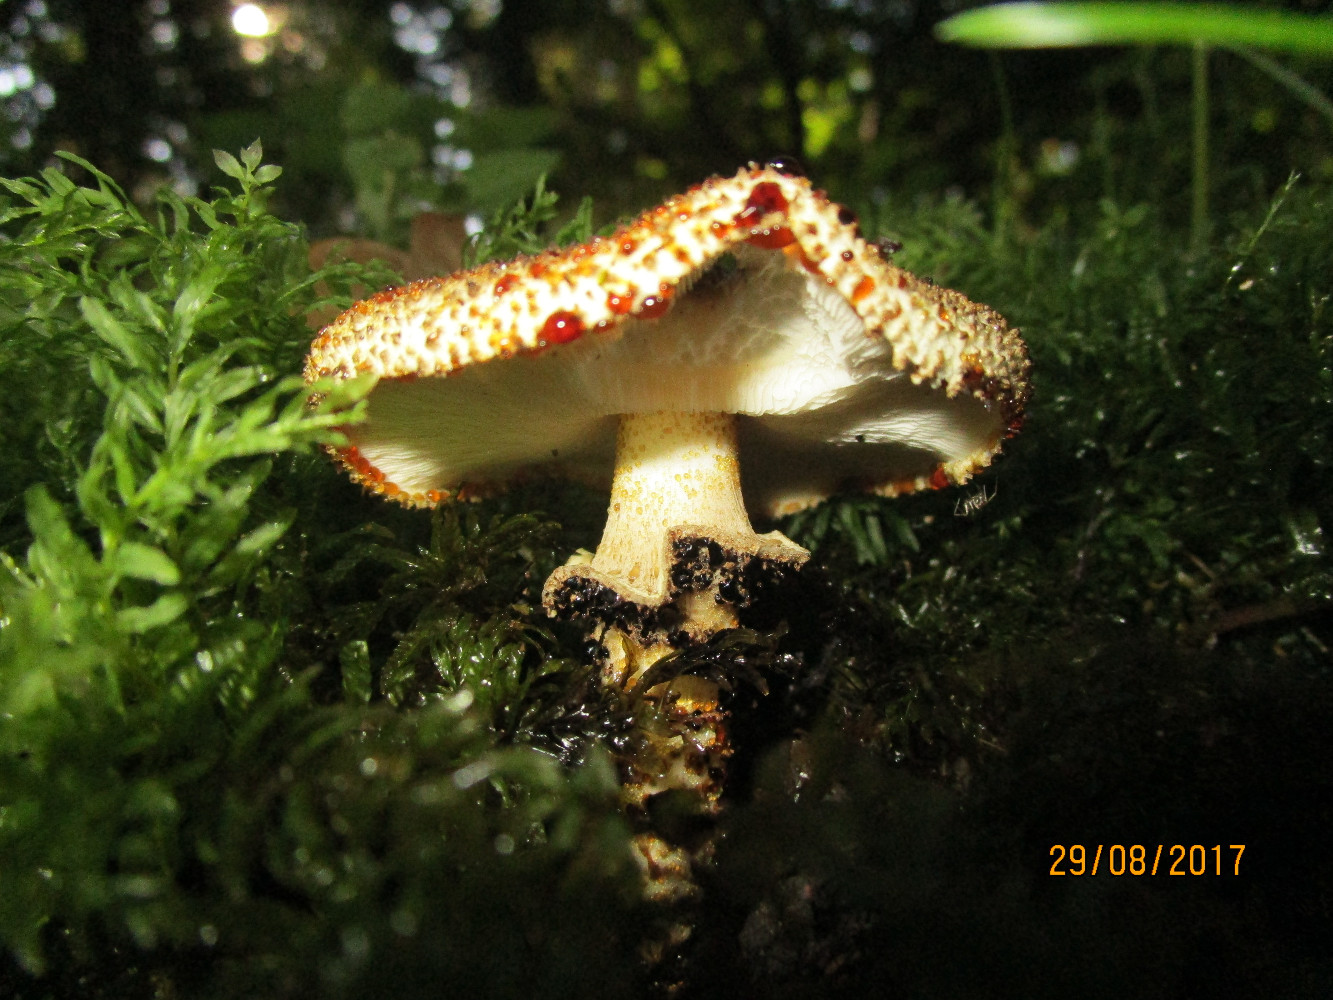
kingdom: Fungi
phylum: Basidiomycota
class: Agaricomycetes
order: Agaricales
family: Agaricaceae
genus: Echinoderma
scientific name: Echinoderma hystrix
